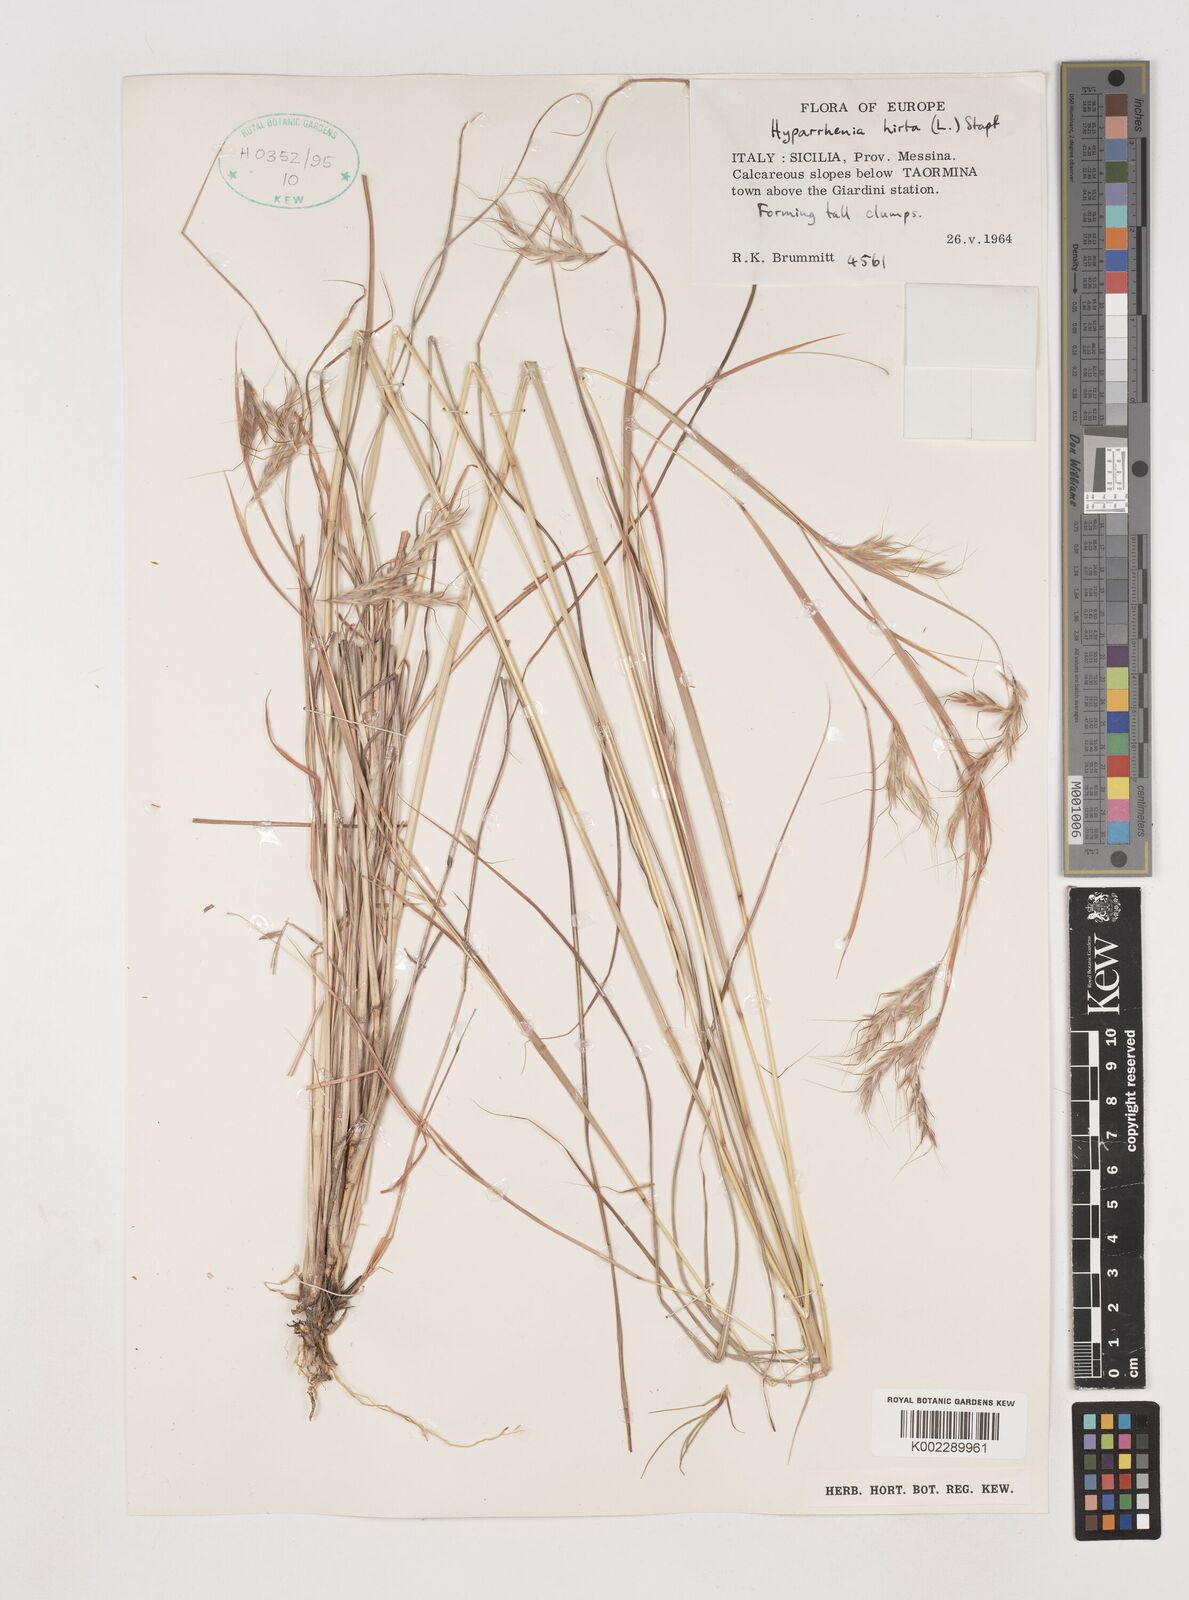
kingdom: Plantae
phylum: Tracheophyta
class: Liliopsida
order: Poales
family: Poaceae
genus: Hyparrhenia
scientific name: Hyparrhenia hirta
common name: Thatching grass
